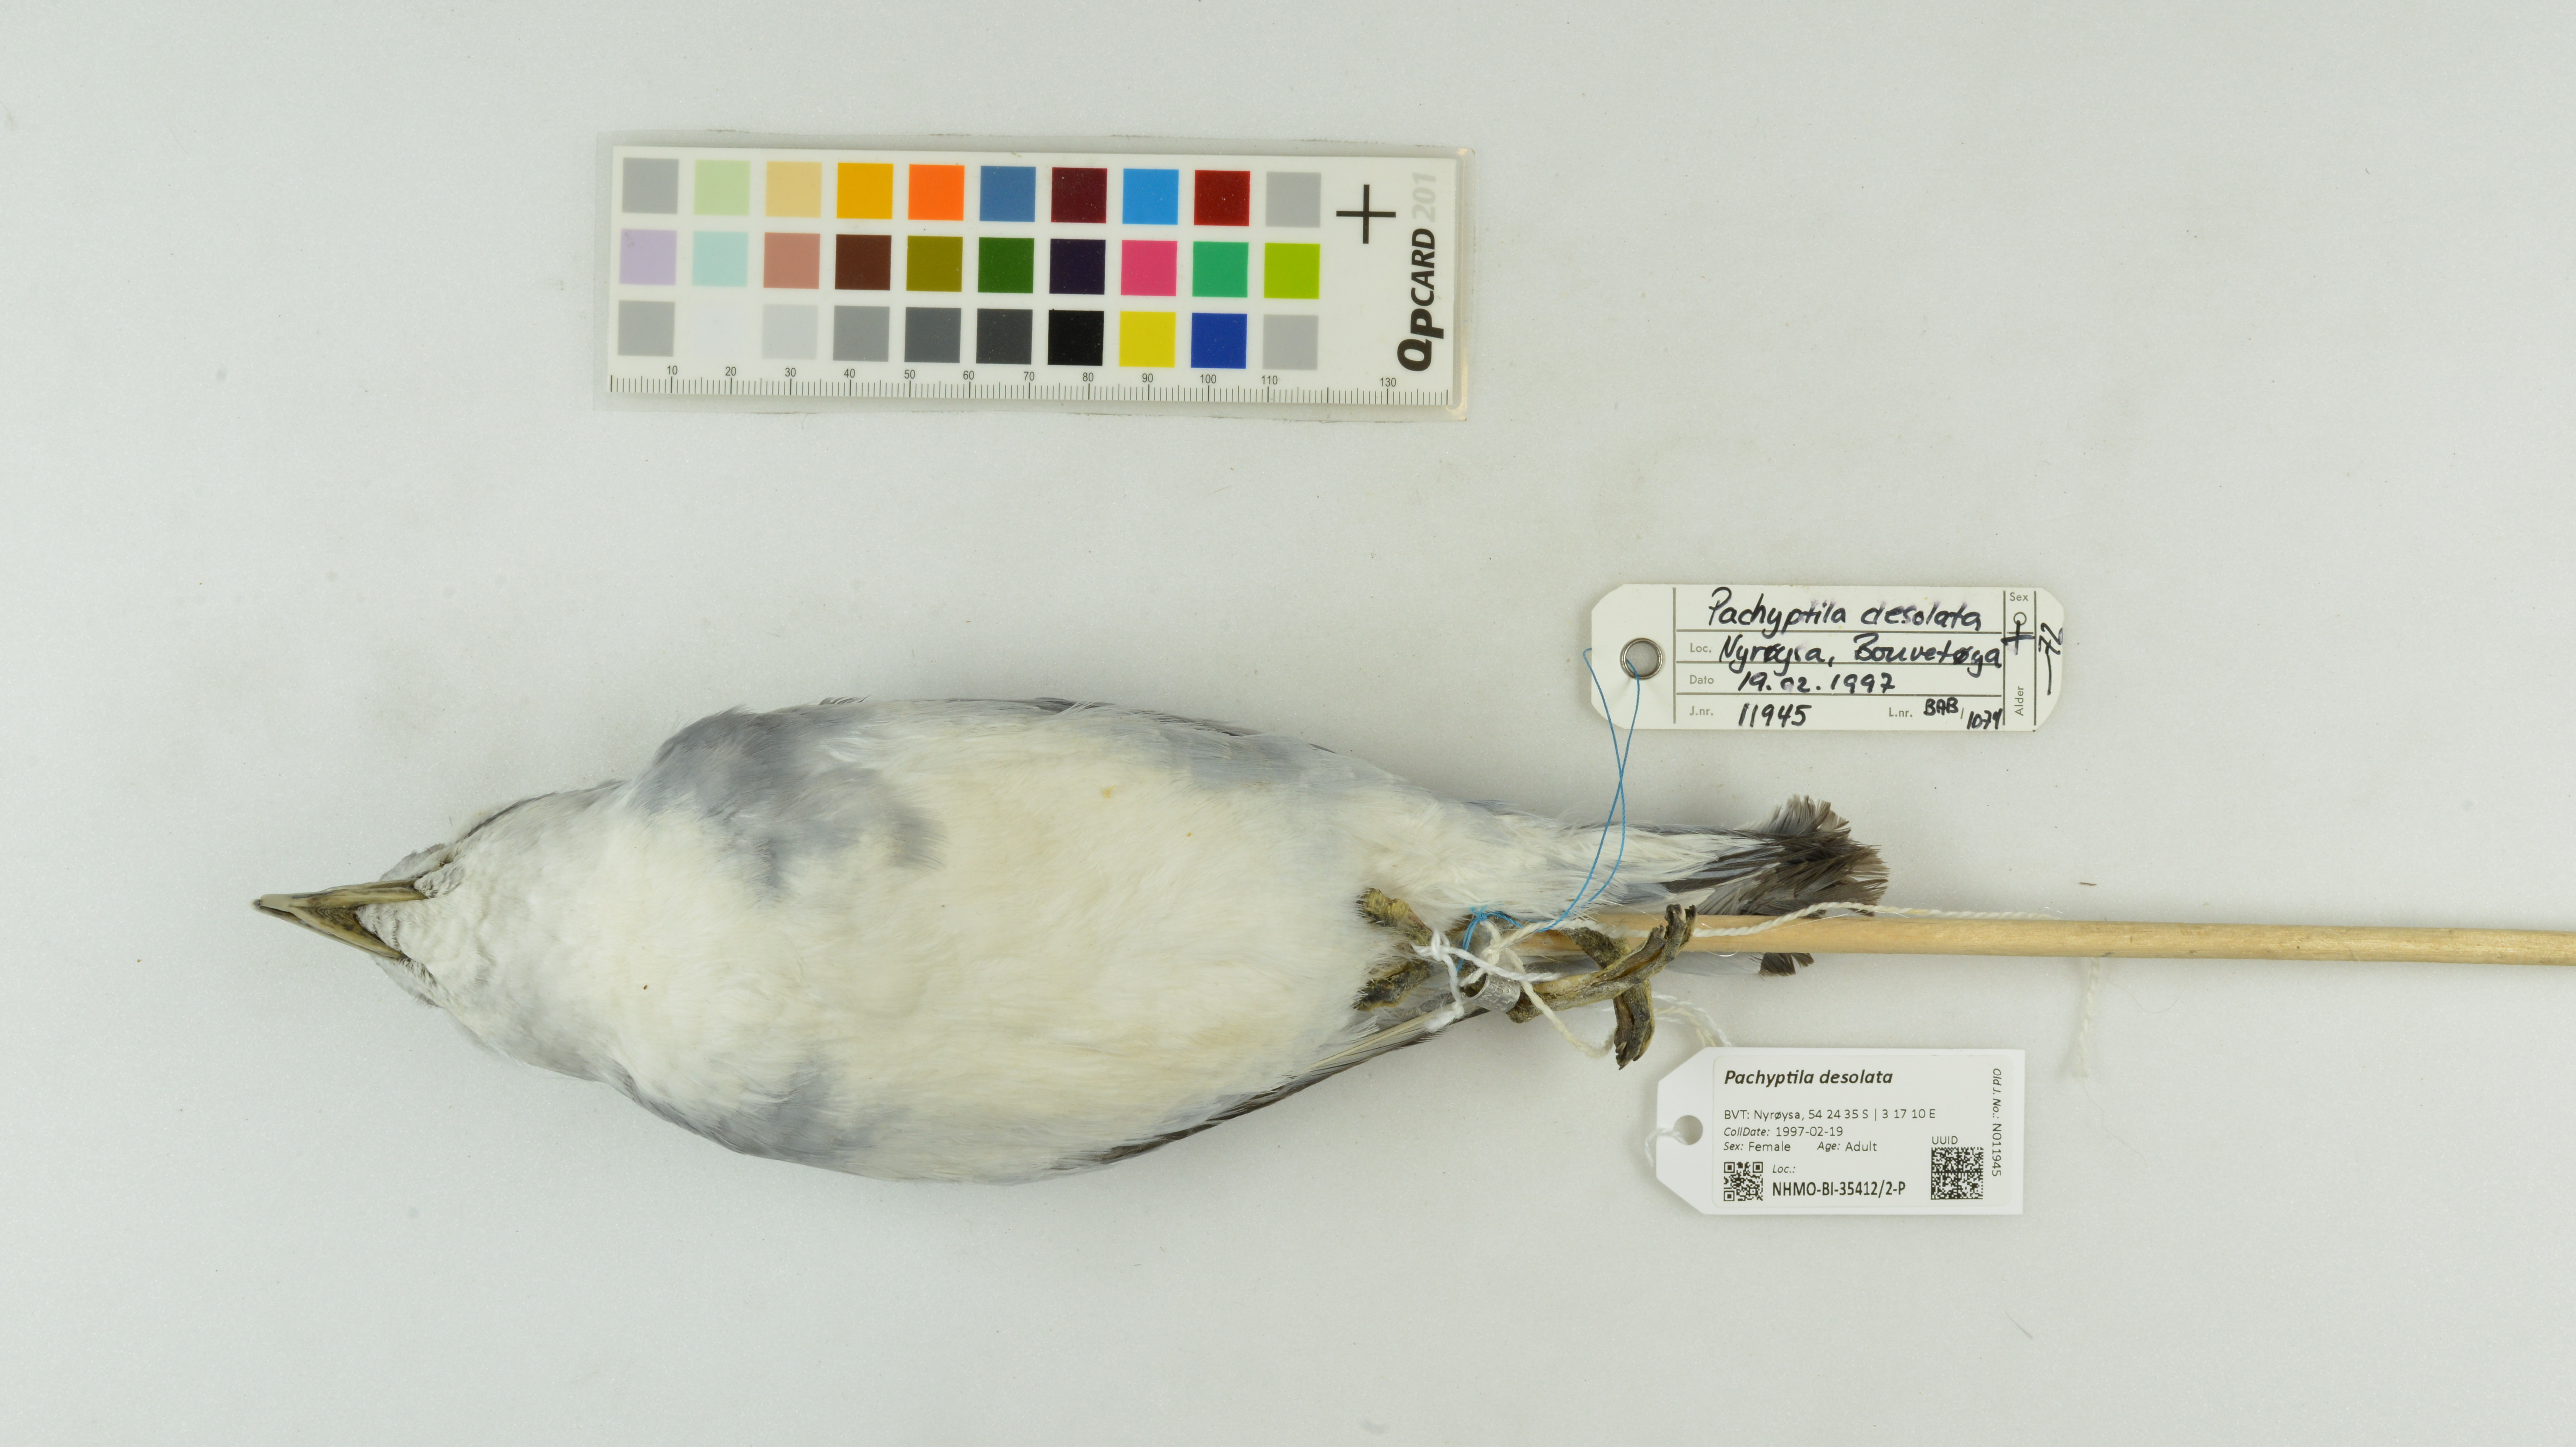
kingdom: Animalia
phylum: Chordata
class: Aves
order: Procellariiformes
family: Procellariidae
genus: Pachyptila
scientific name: Pachyptila desolata
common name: Antarctic prion
